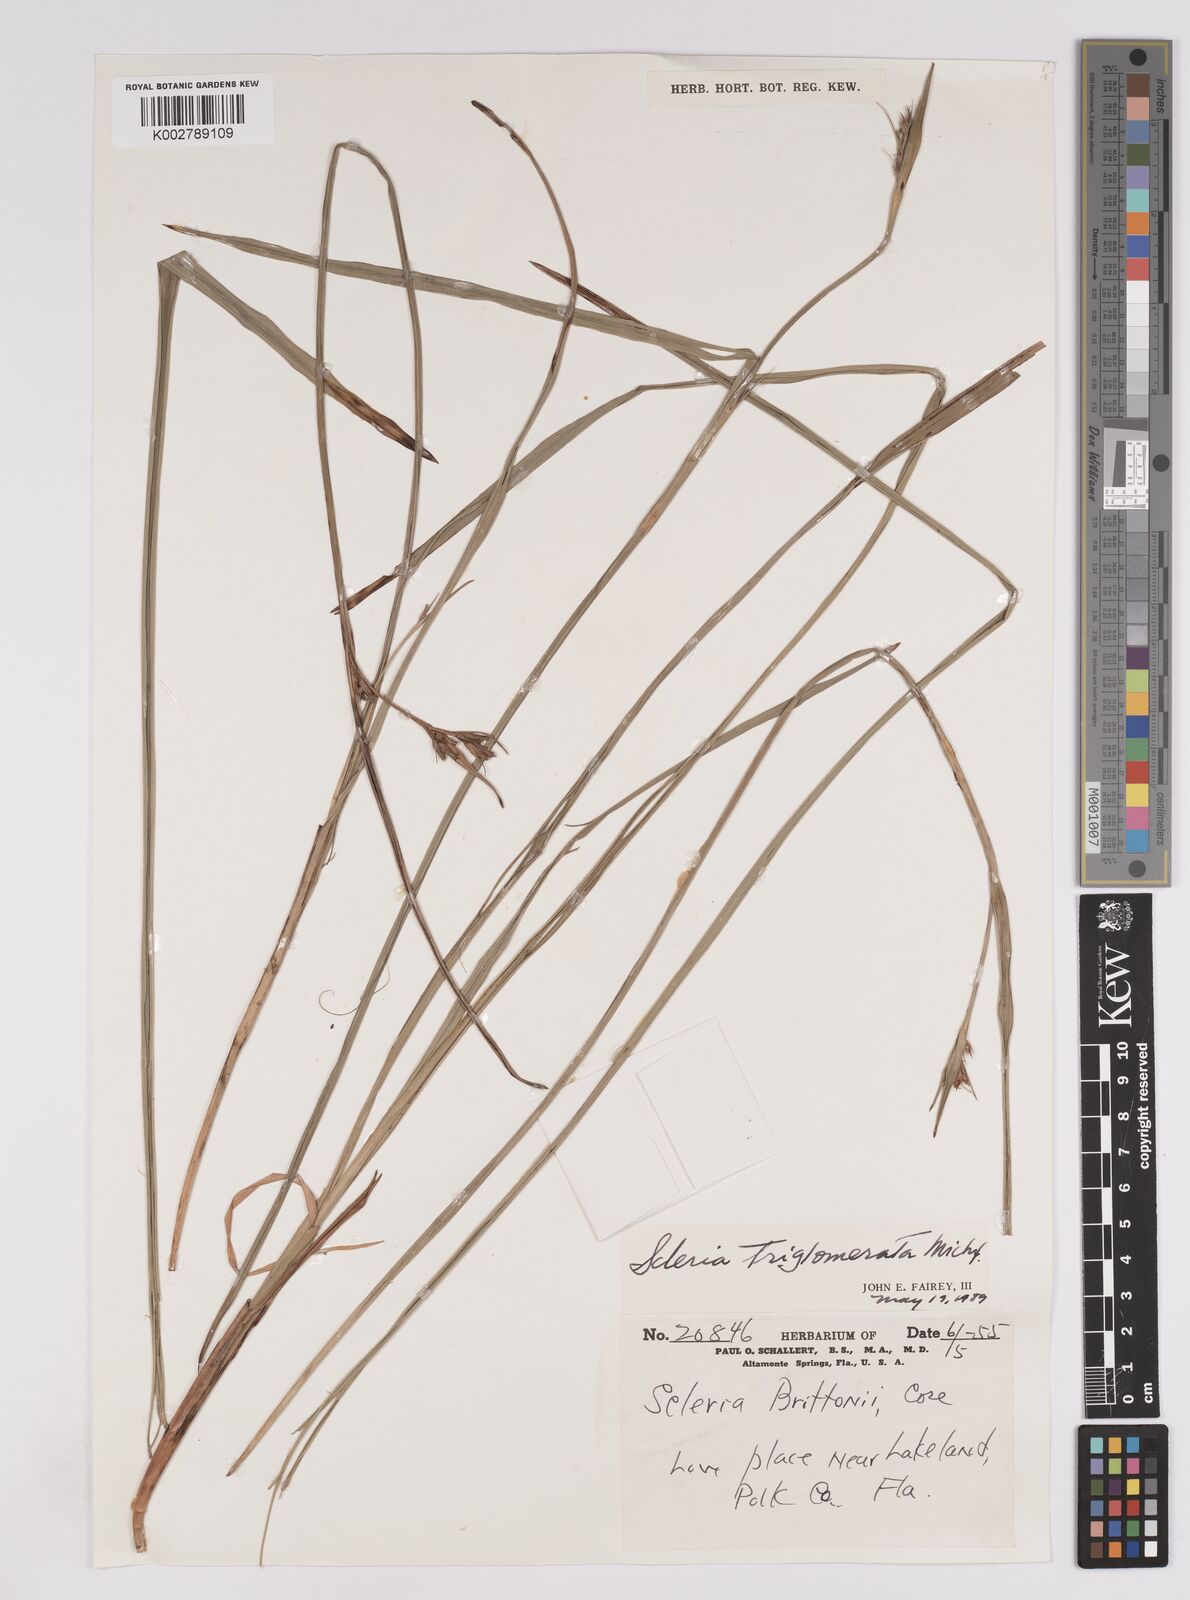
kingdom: Plantae
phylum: Tracheophyta
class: Liliopsida
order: Poales
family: Cyperaceae
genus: Scleria
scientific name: Scleria ciliata
